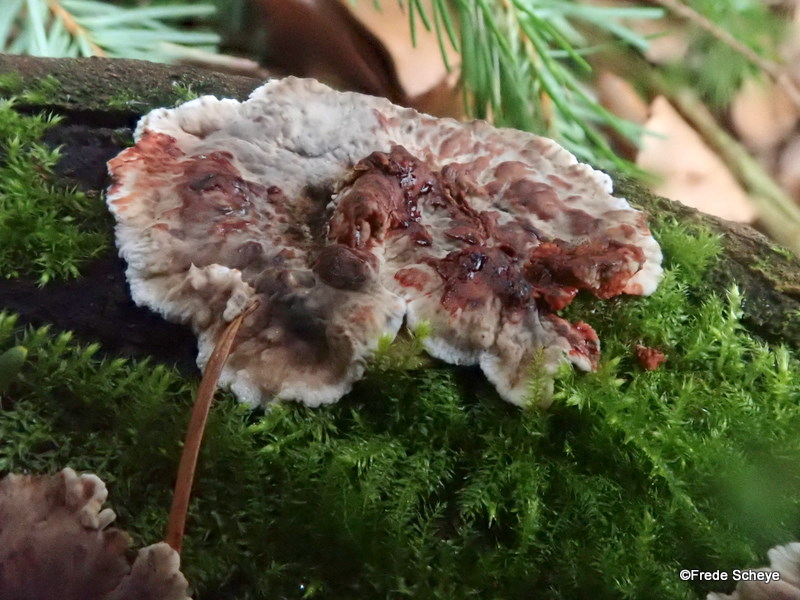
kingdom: Fungi
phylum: Basidiomycota
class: Agaricomycetes
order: Russulales
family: Stereaceae
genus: Stereum
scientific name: Stereum sanguinolentum
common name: blødende lædersvamp
